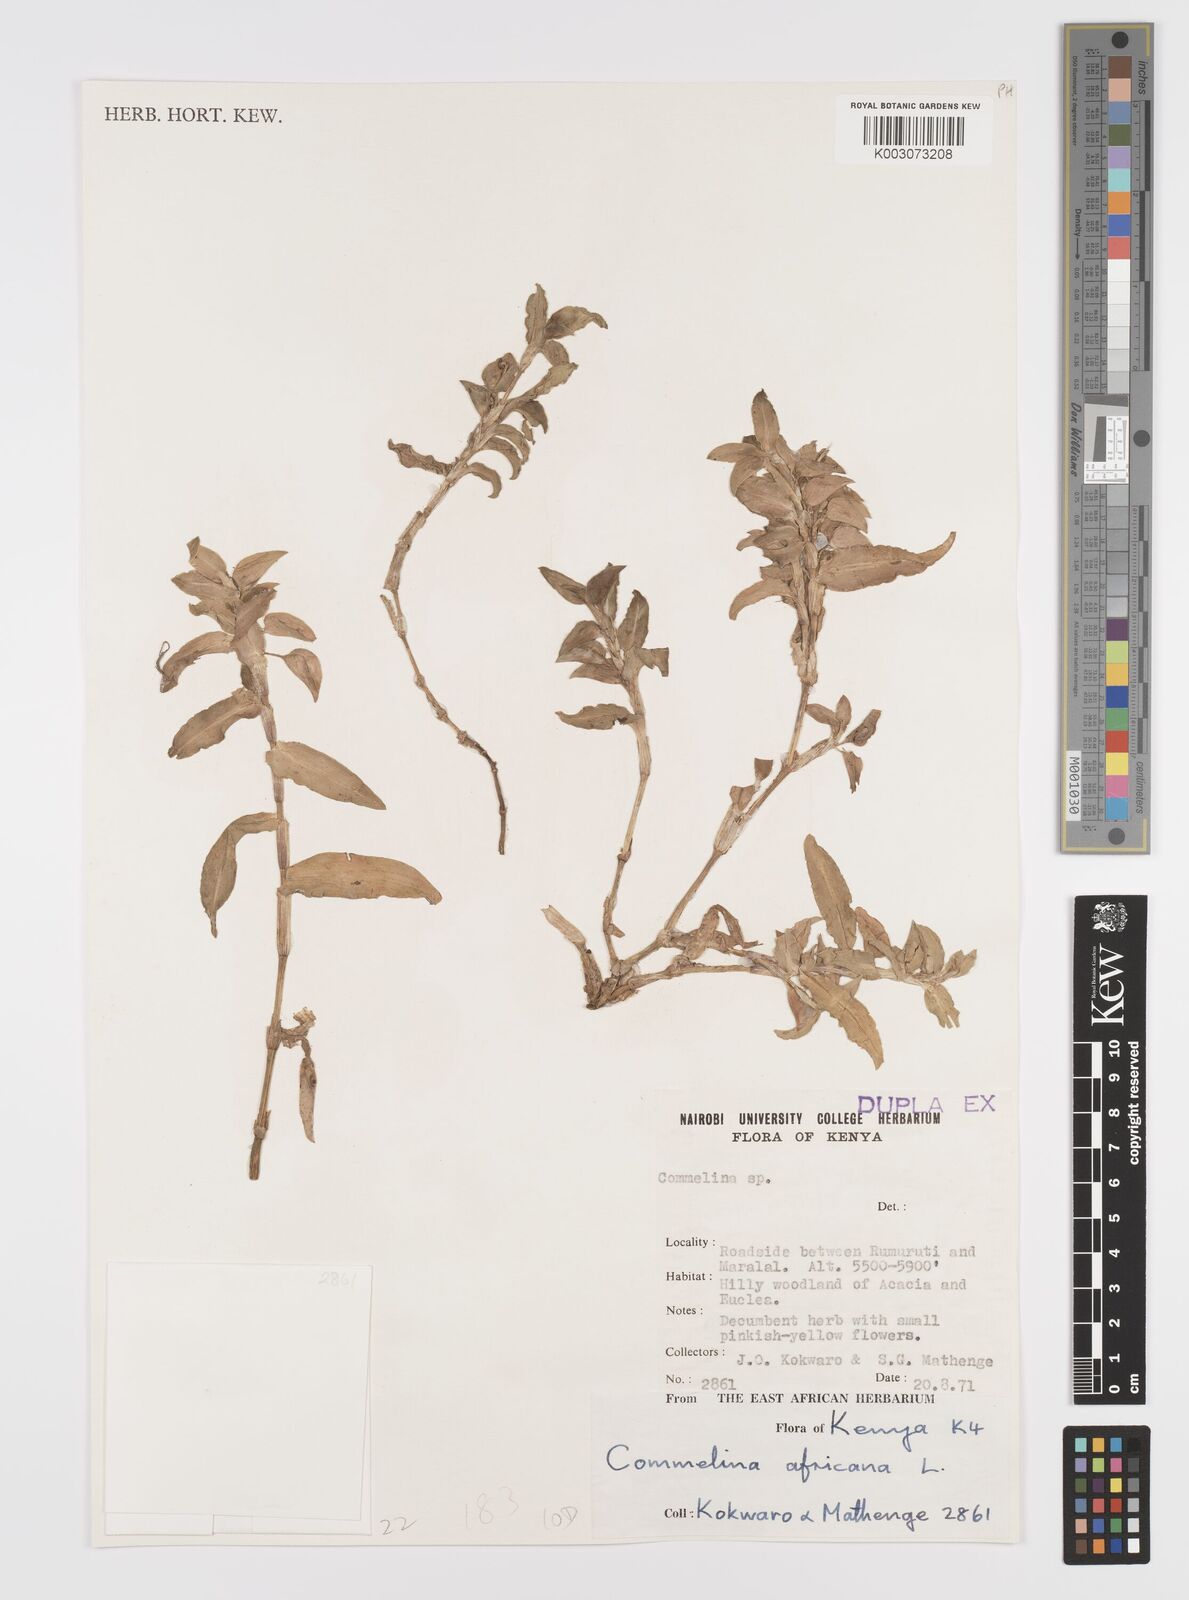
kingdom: Plantae
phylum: Tracheophyta
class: Liliopsida
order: Commelinales
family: Commelinaceae
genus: Commelina
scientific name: Commelina africana
